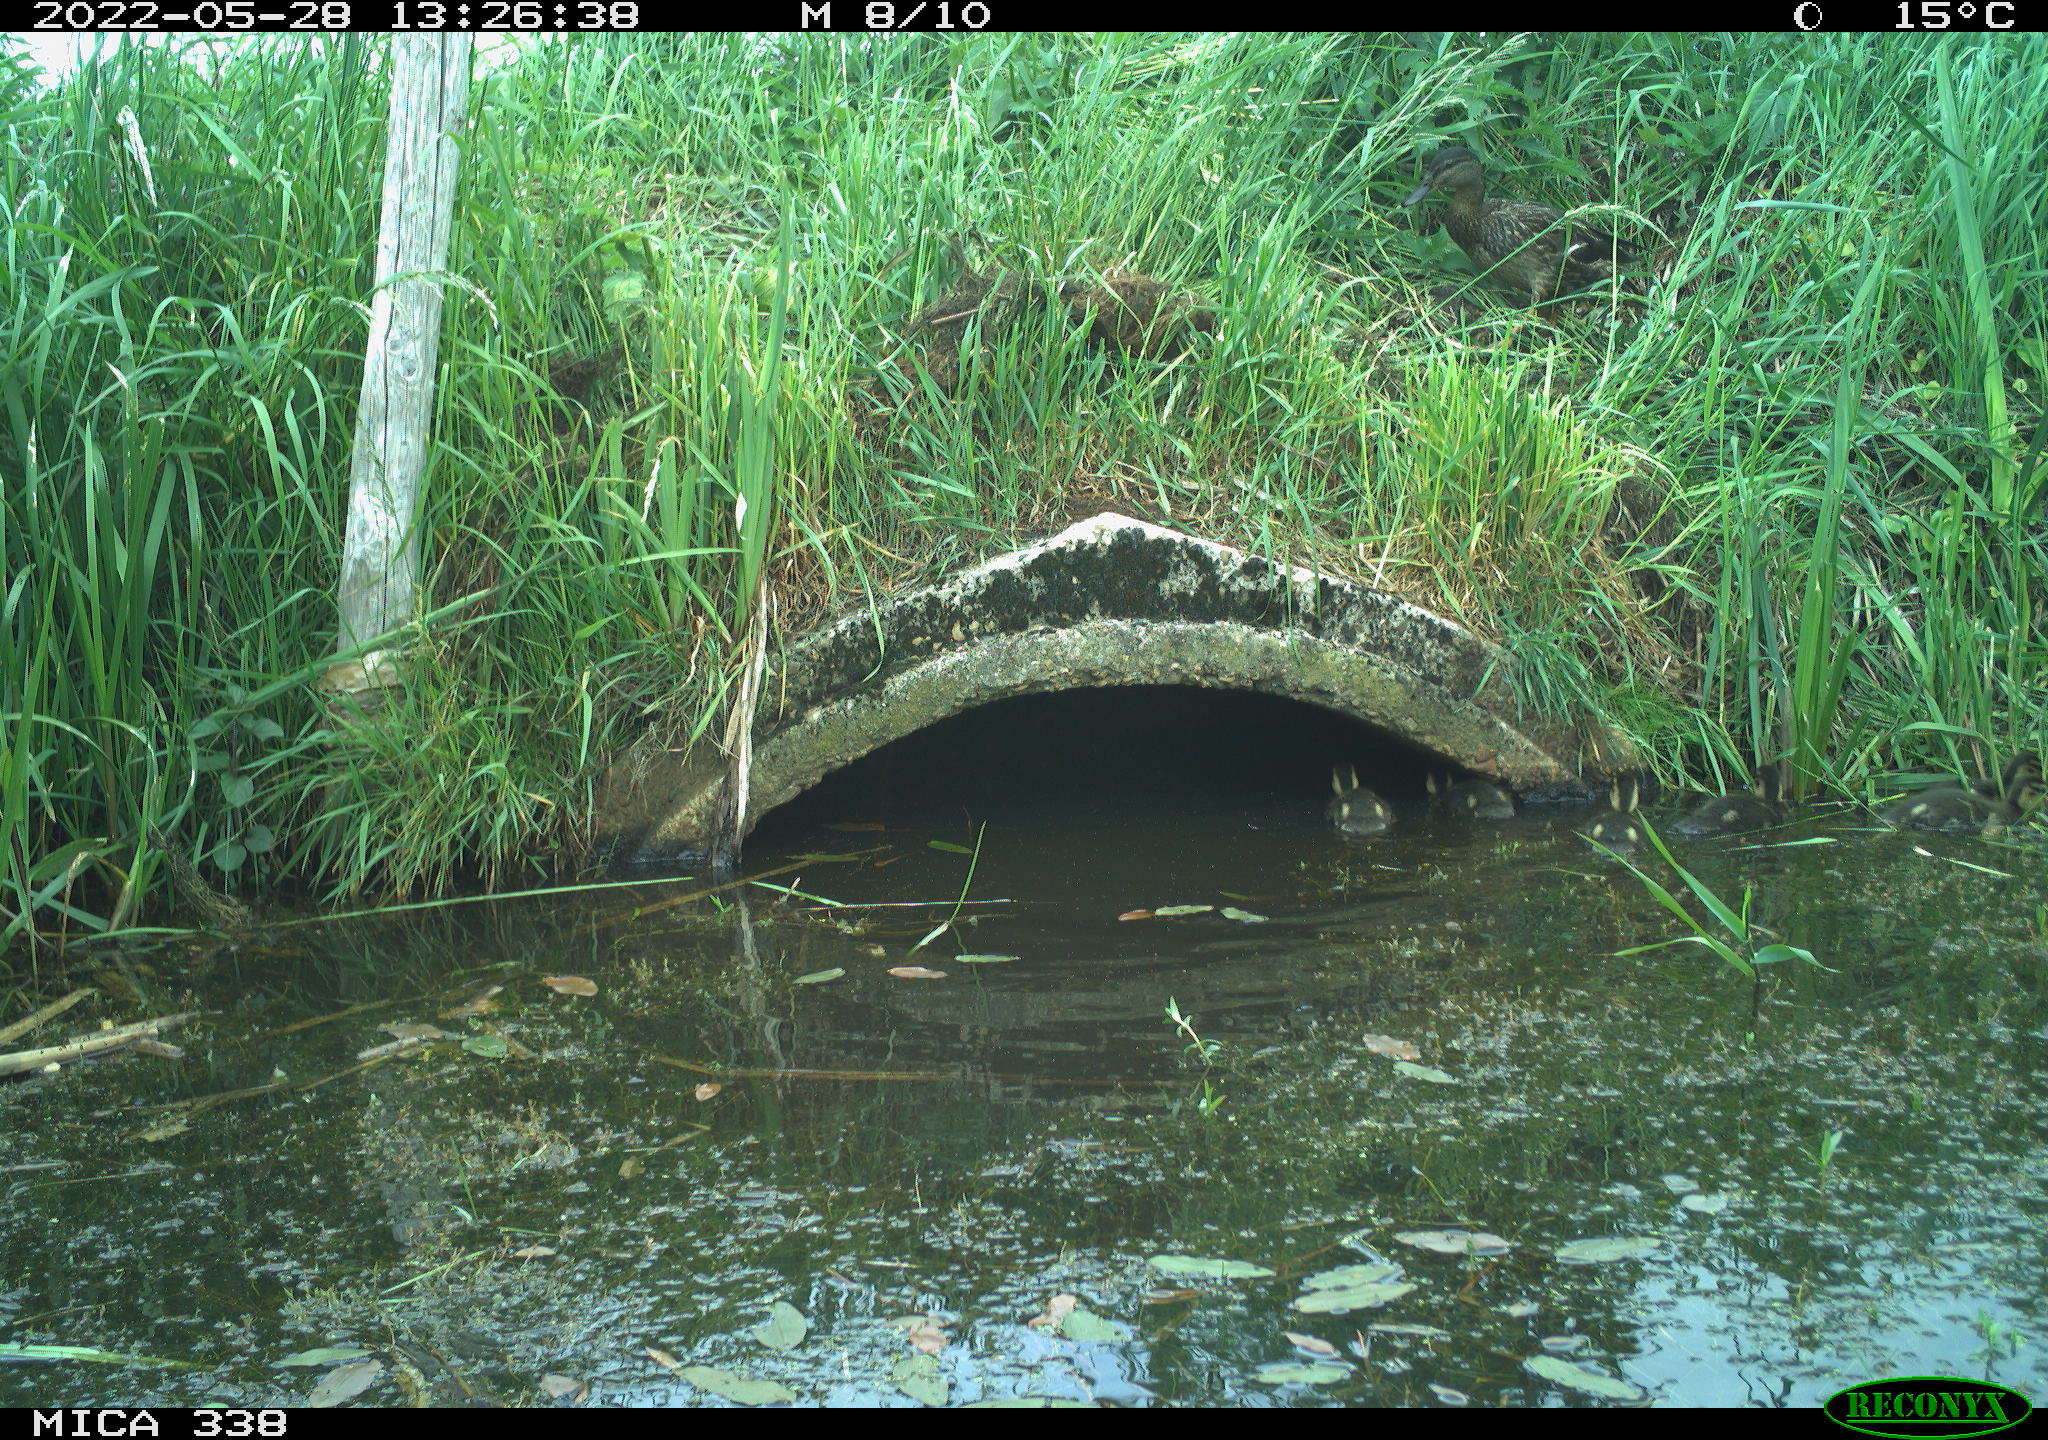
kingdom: Animalia
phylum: Chordata
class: Aves
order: Anseriformes
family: Anatidae
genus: Anas
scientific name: Anas platyrhynchos
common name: Mallard
